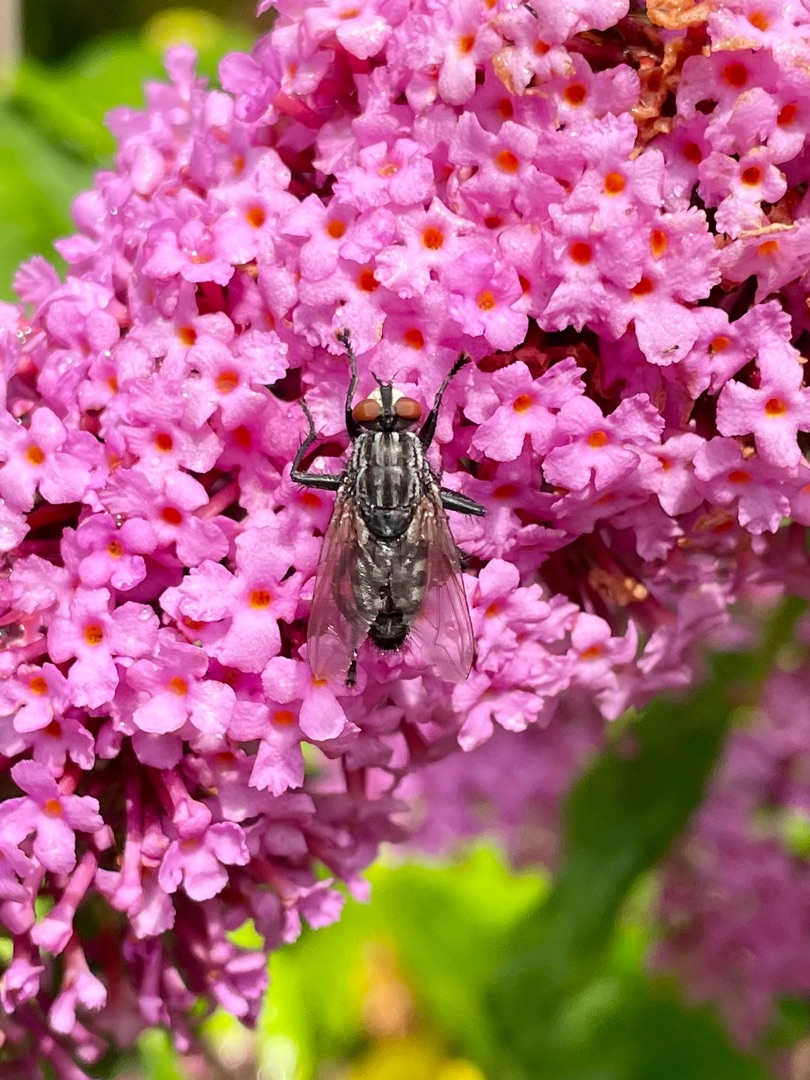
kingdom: Animalia
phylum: Arthropoda
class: Insecta
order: Diptera
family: Sarcophagidae
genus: Sarcophaga
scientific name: Sarcophaga
